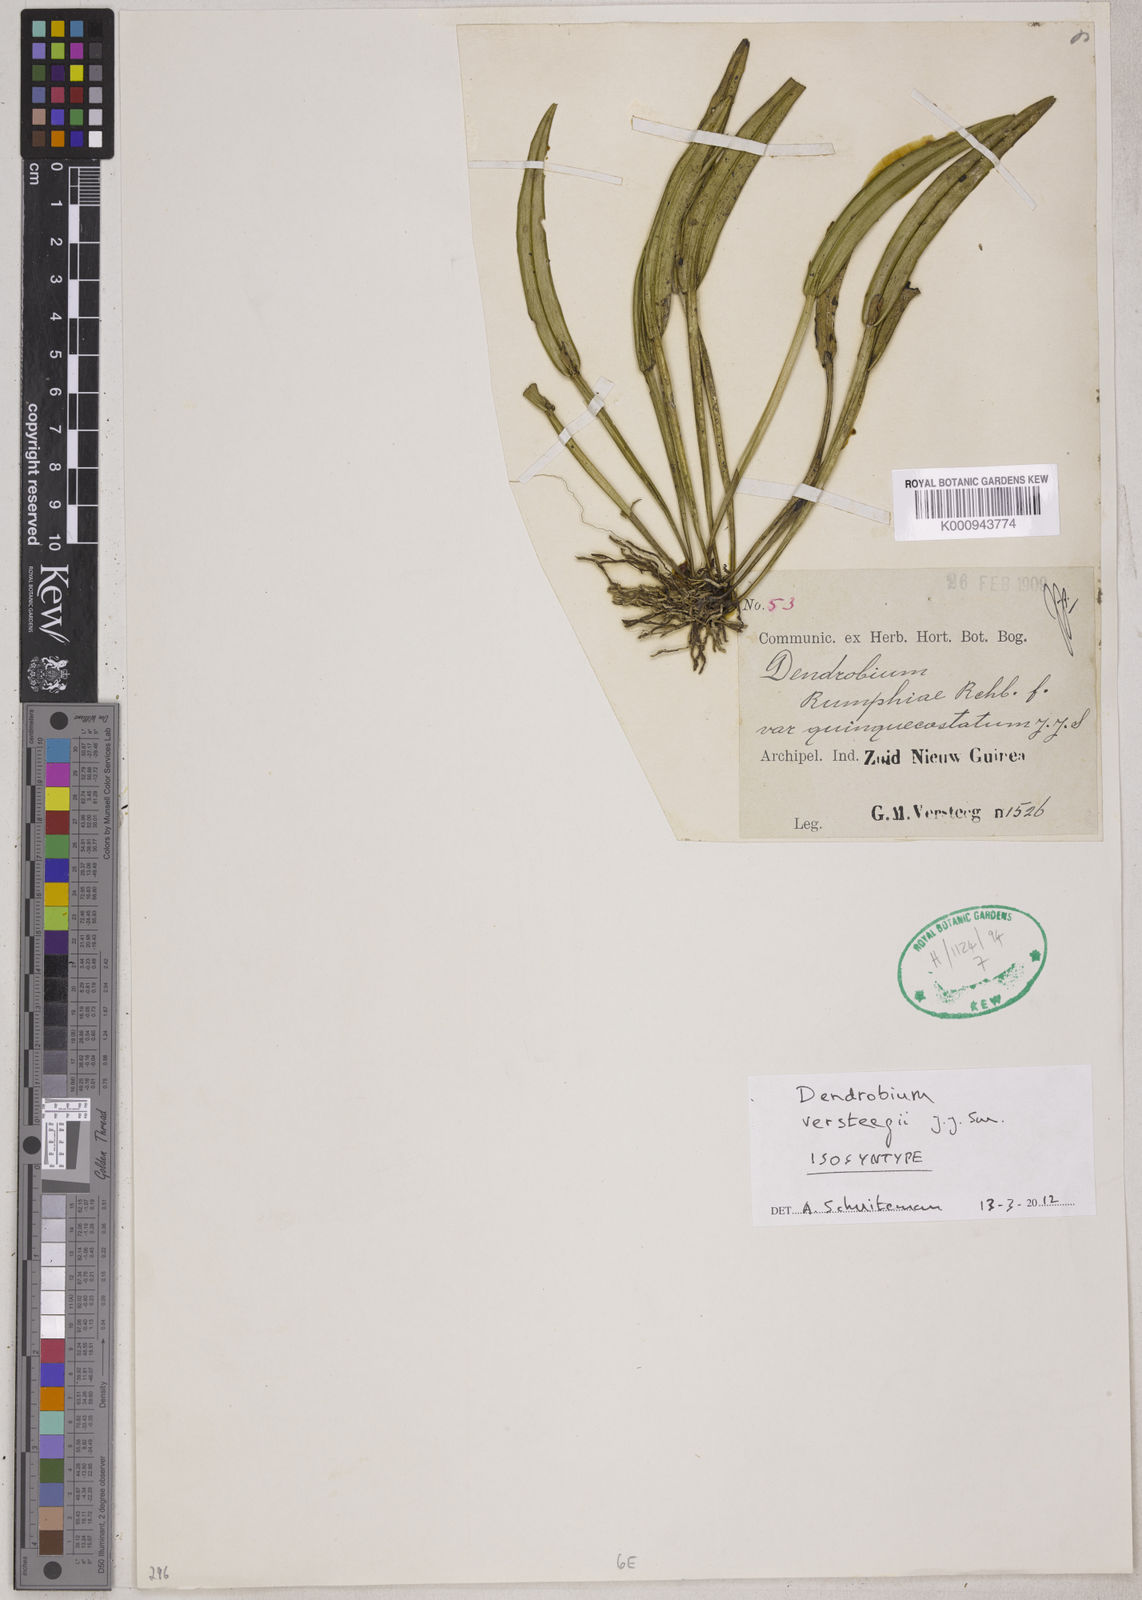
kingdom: Plantae
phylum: Tracheophyta
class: Liliopsida
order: Asparagales
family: Orchidaceae
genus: Dendrobium
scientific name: Dendrobium versteegii
